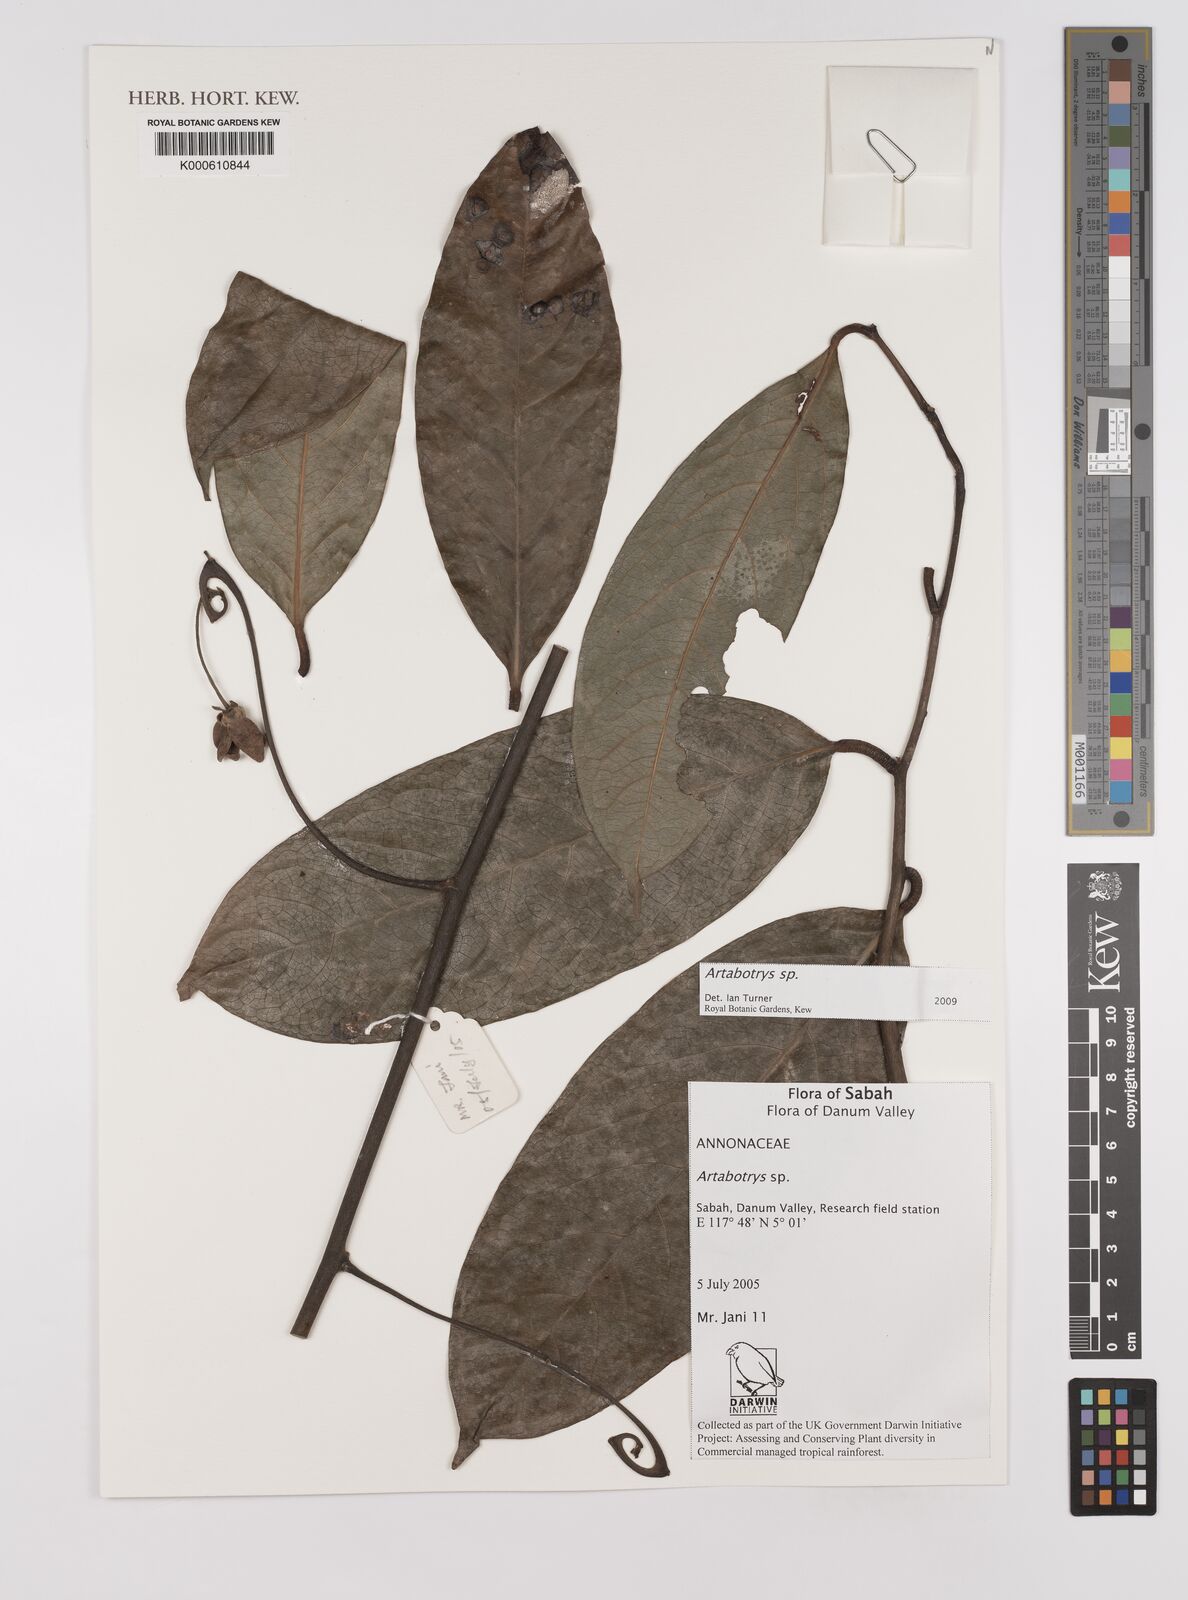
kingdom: Plantae
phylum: Tracheophyta
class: Magnoliopsida
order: Magnoliales
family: Annonaceae
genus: Artabotrys
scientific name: Artabotrys
